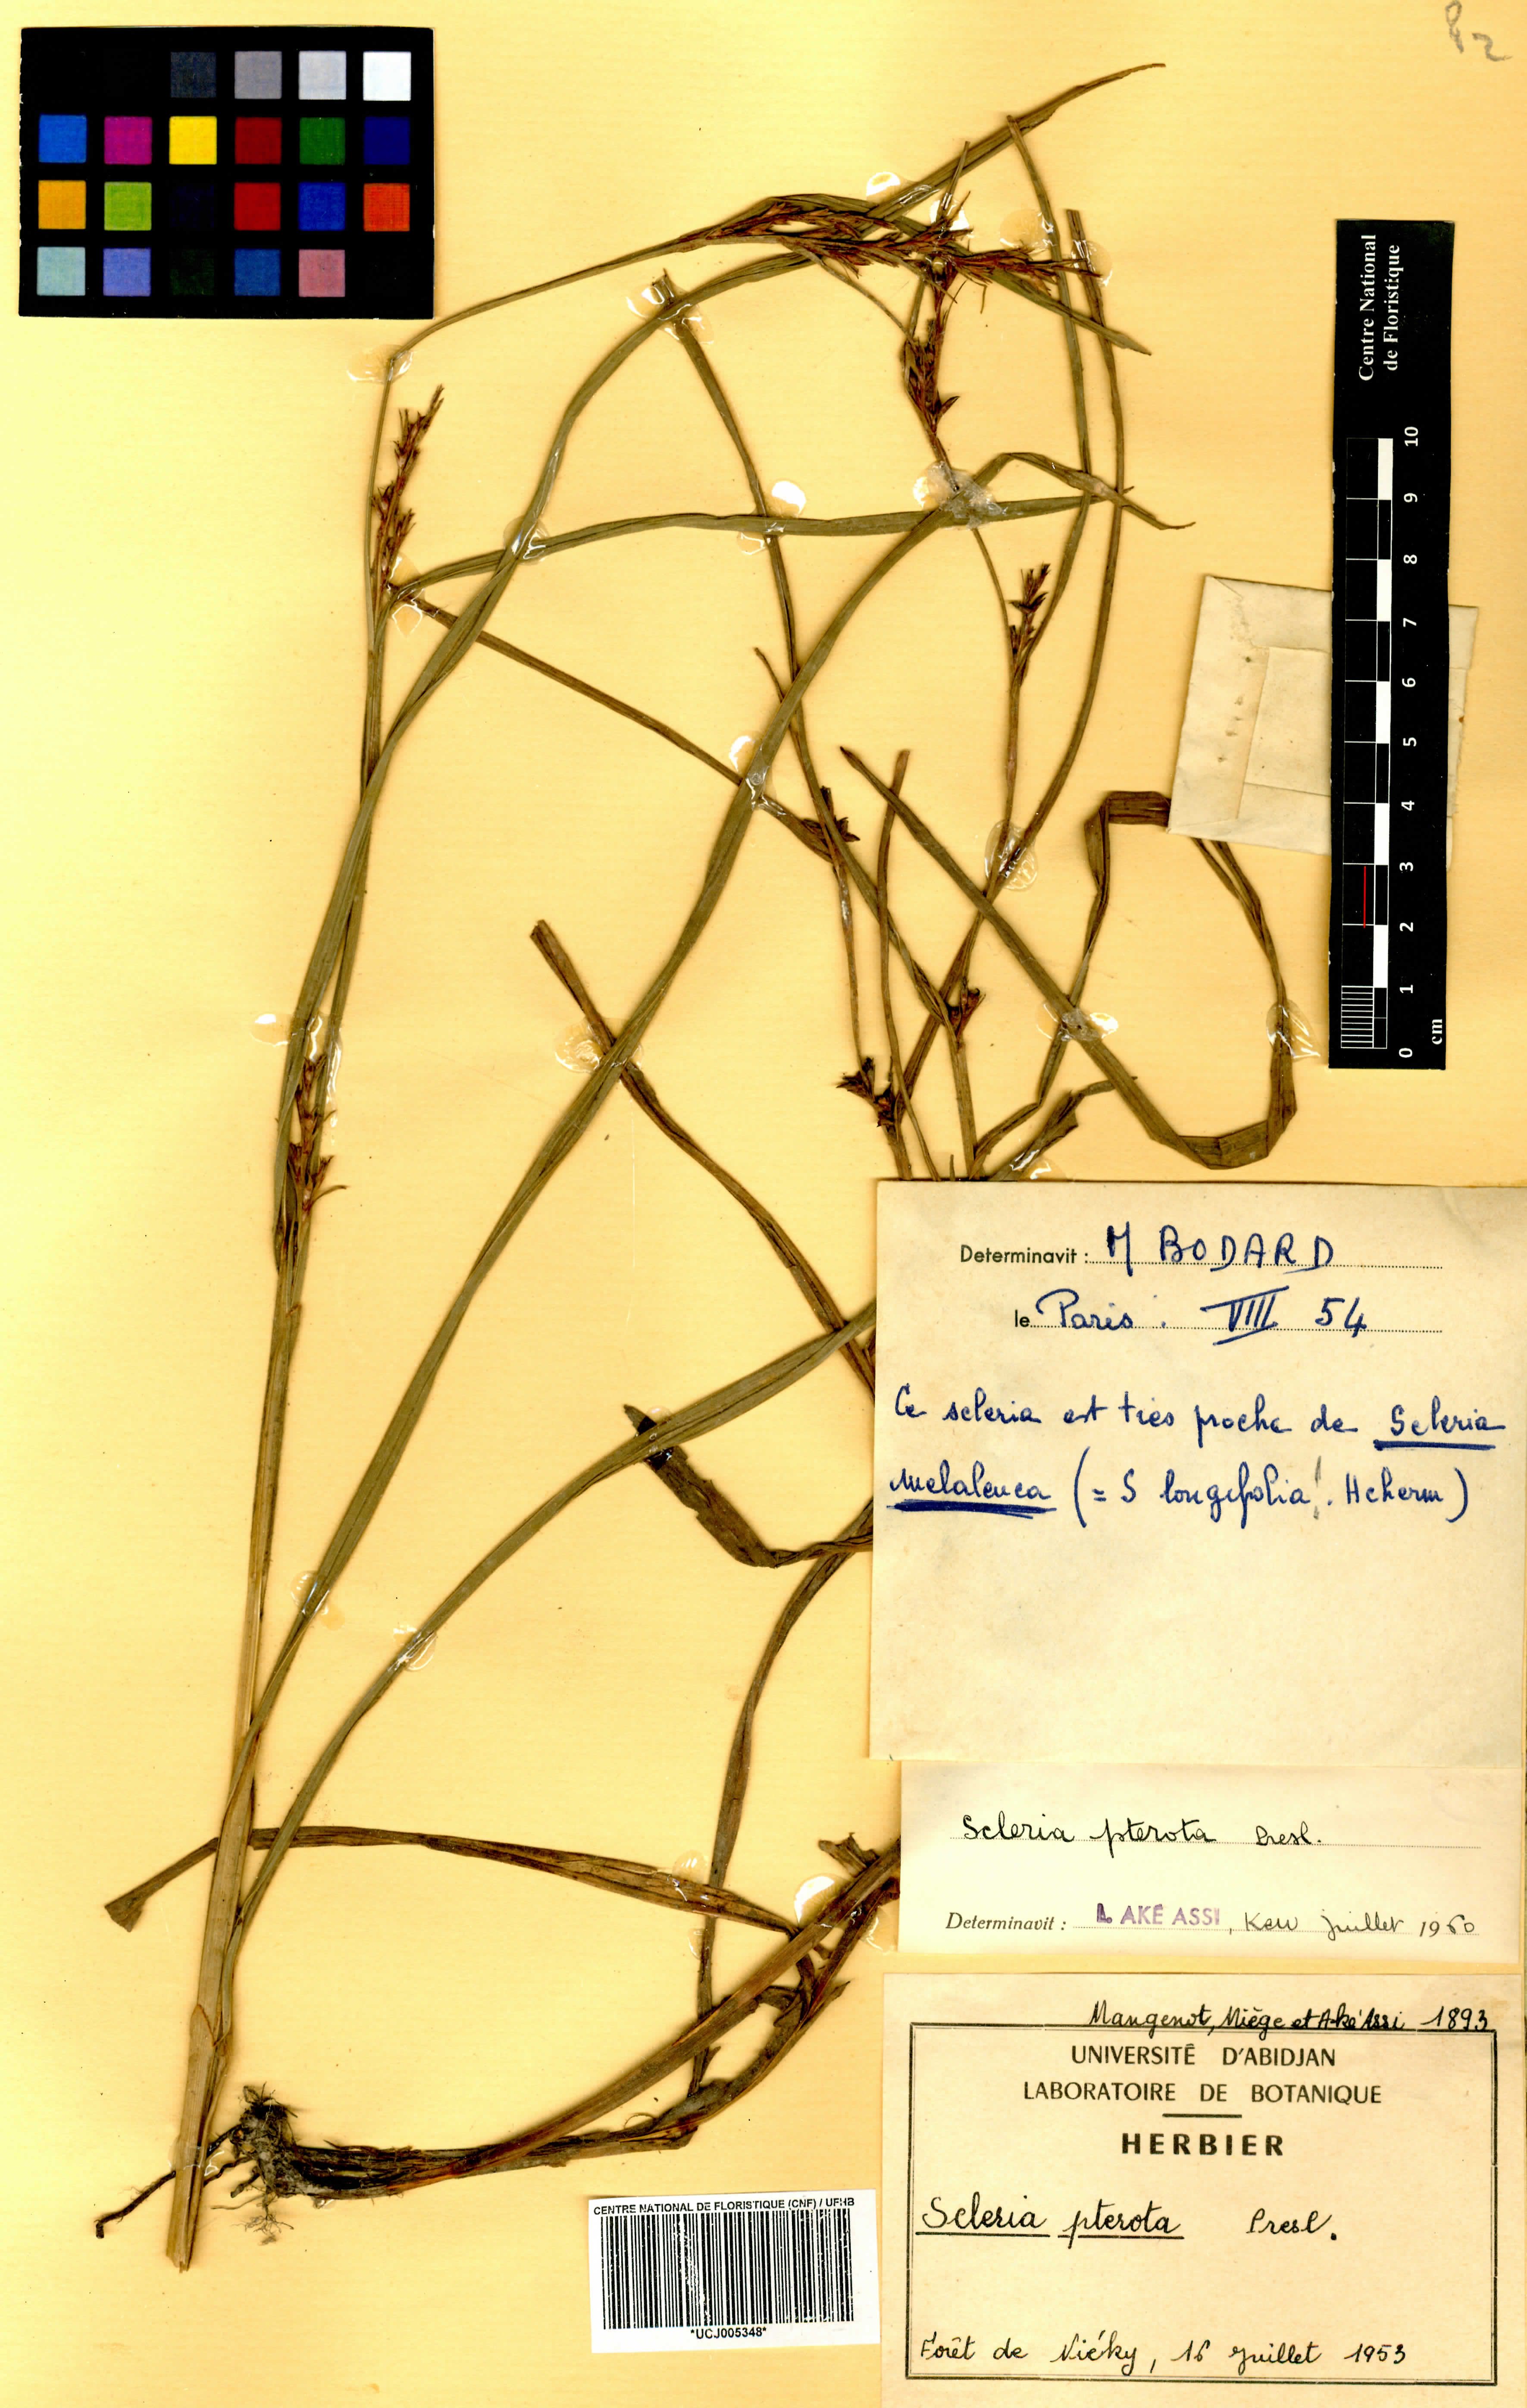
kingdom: Plantae
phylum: Tracheophyta
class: Liliopsida
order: Poales
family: Cyperaceae
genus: Scleria
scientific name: Scleria gaertneri
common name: Cortadera blanca
